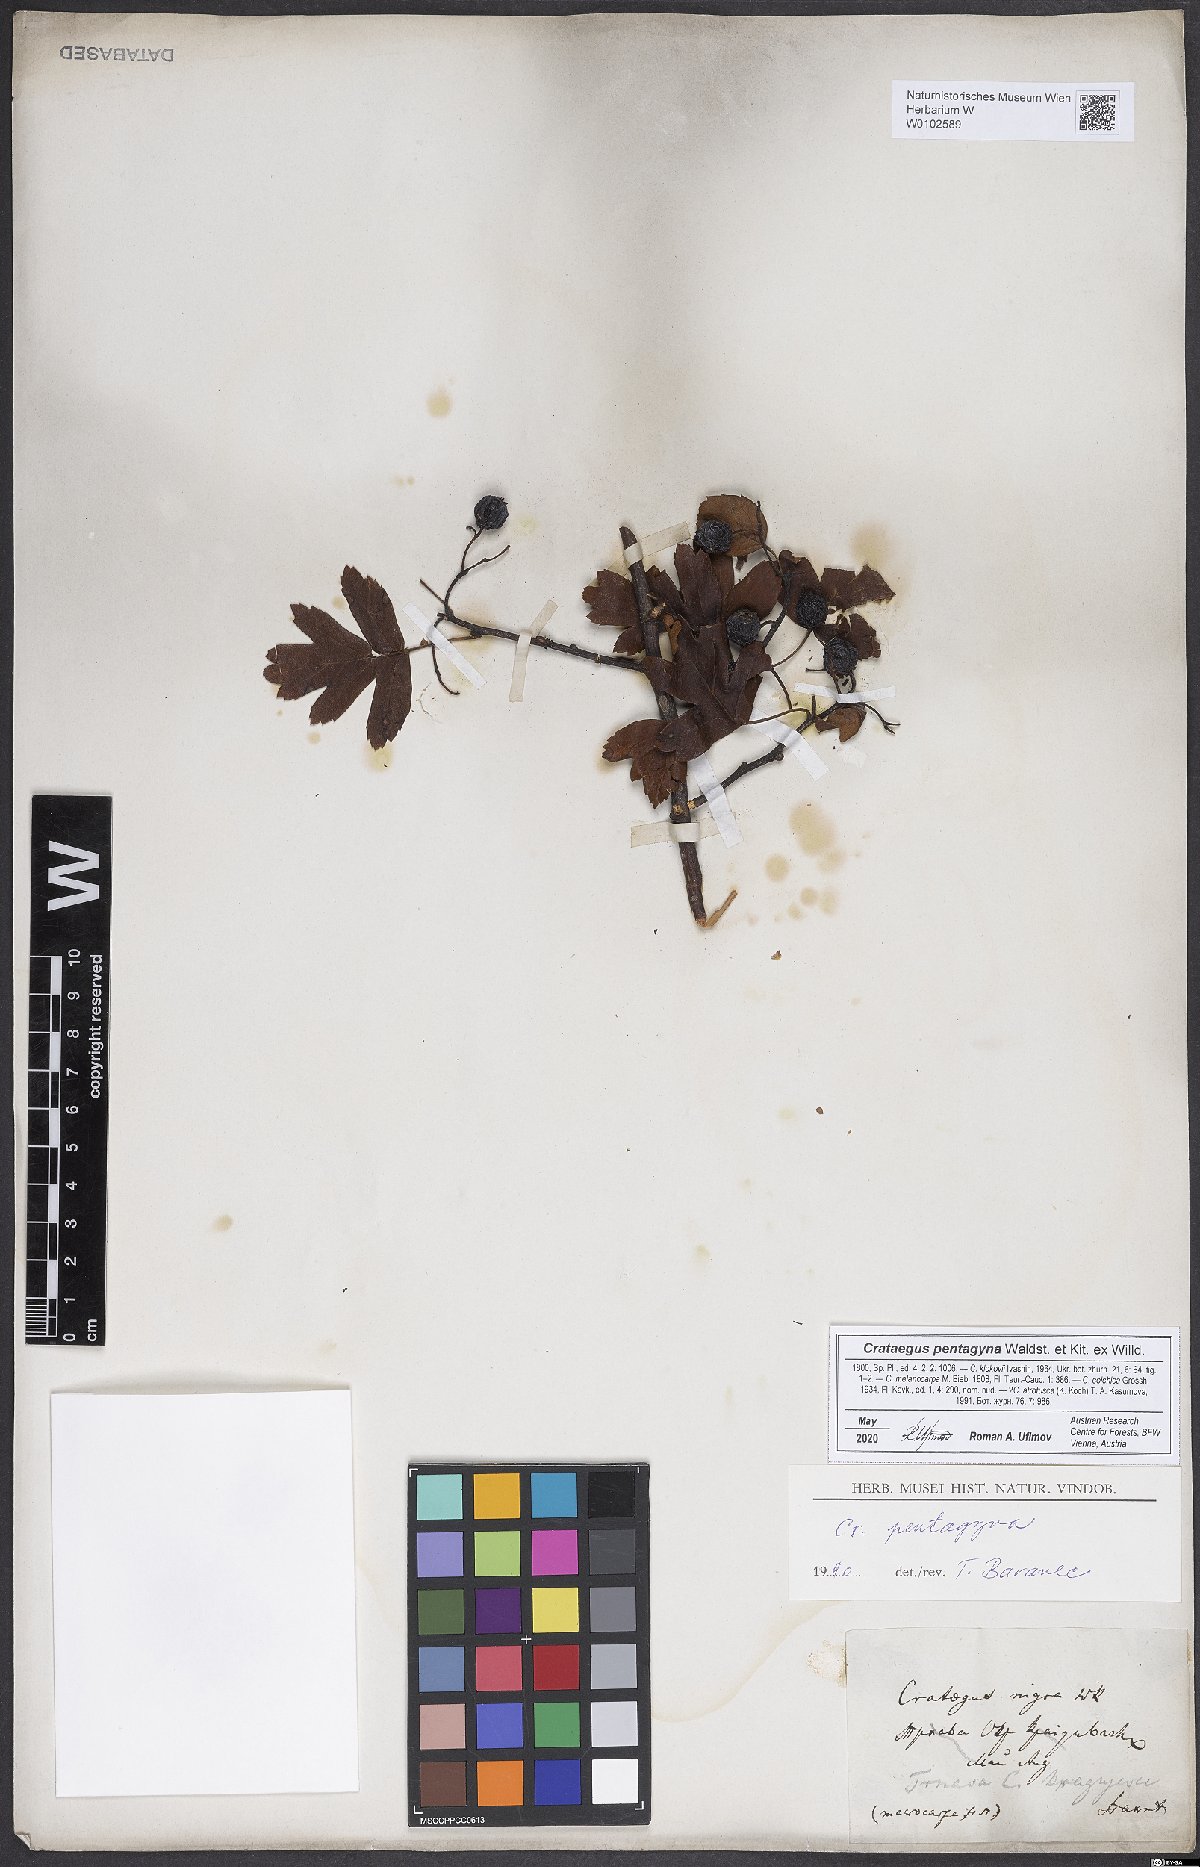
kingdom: Plantae
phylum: Tracheophyta
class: Magnoliopsida
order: Rosales
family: Rosaceae
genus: Crataegus
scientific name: Crataegus pentagyna
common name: Small-flowered black hawthorn
